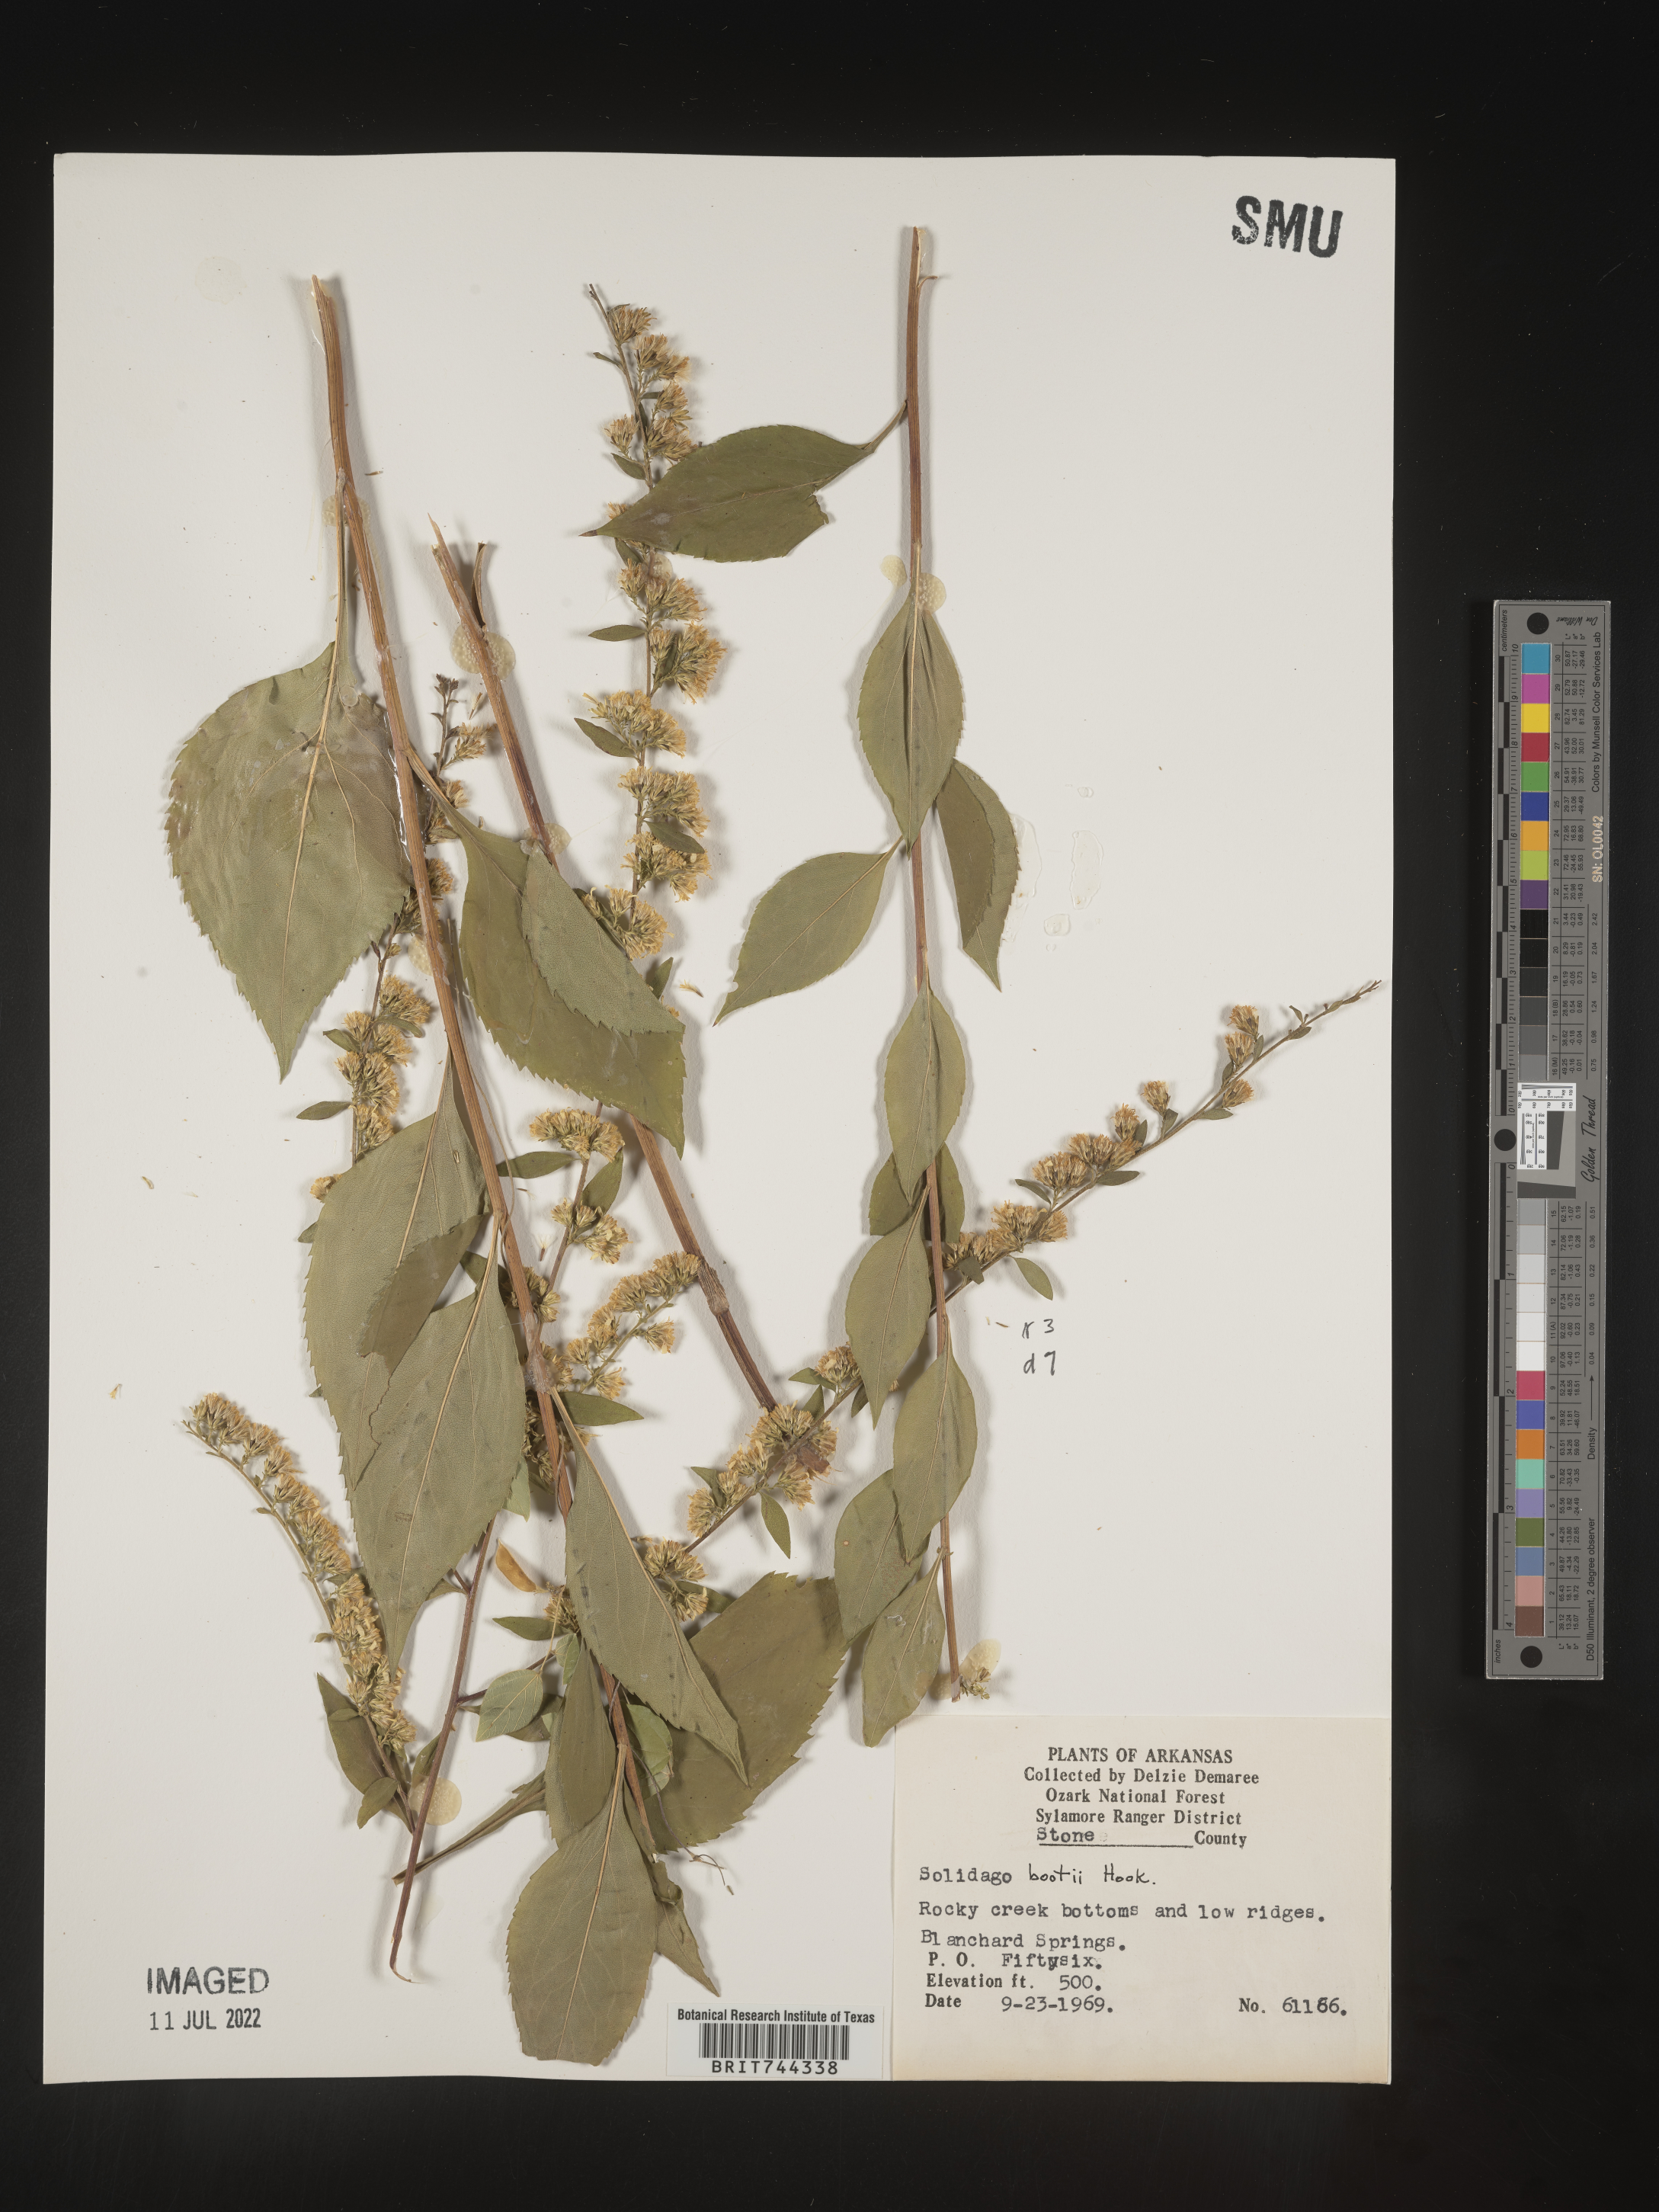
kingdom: Plantae
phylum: Tracheophyta
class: Magnoliopsida
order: Asterales
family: Asteraceae
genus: Solidago
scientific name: Solidago arguta
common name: Atlantic goldenrod
